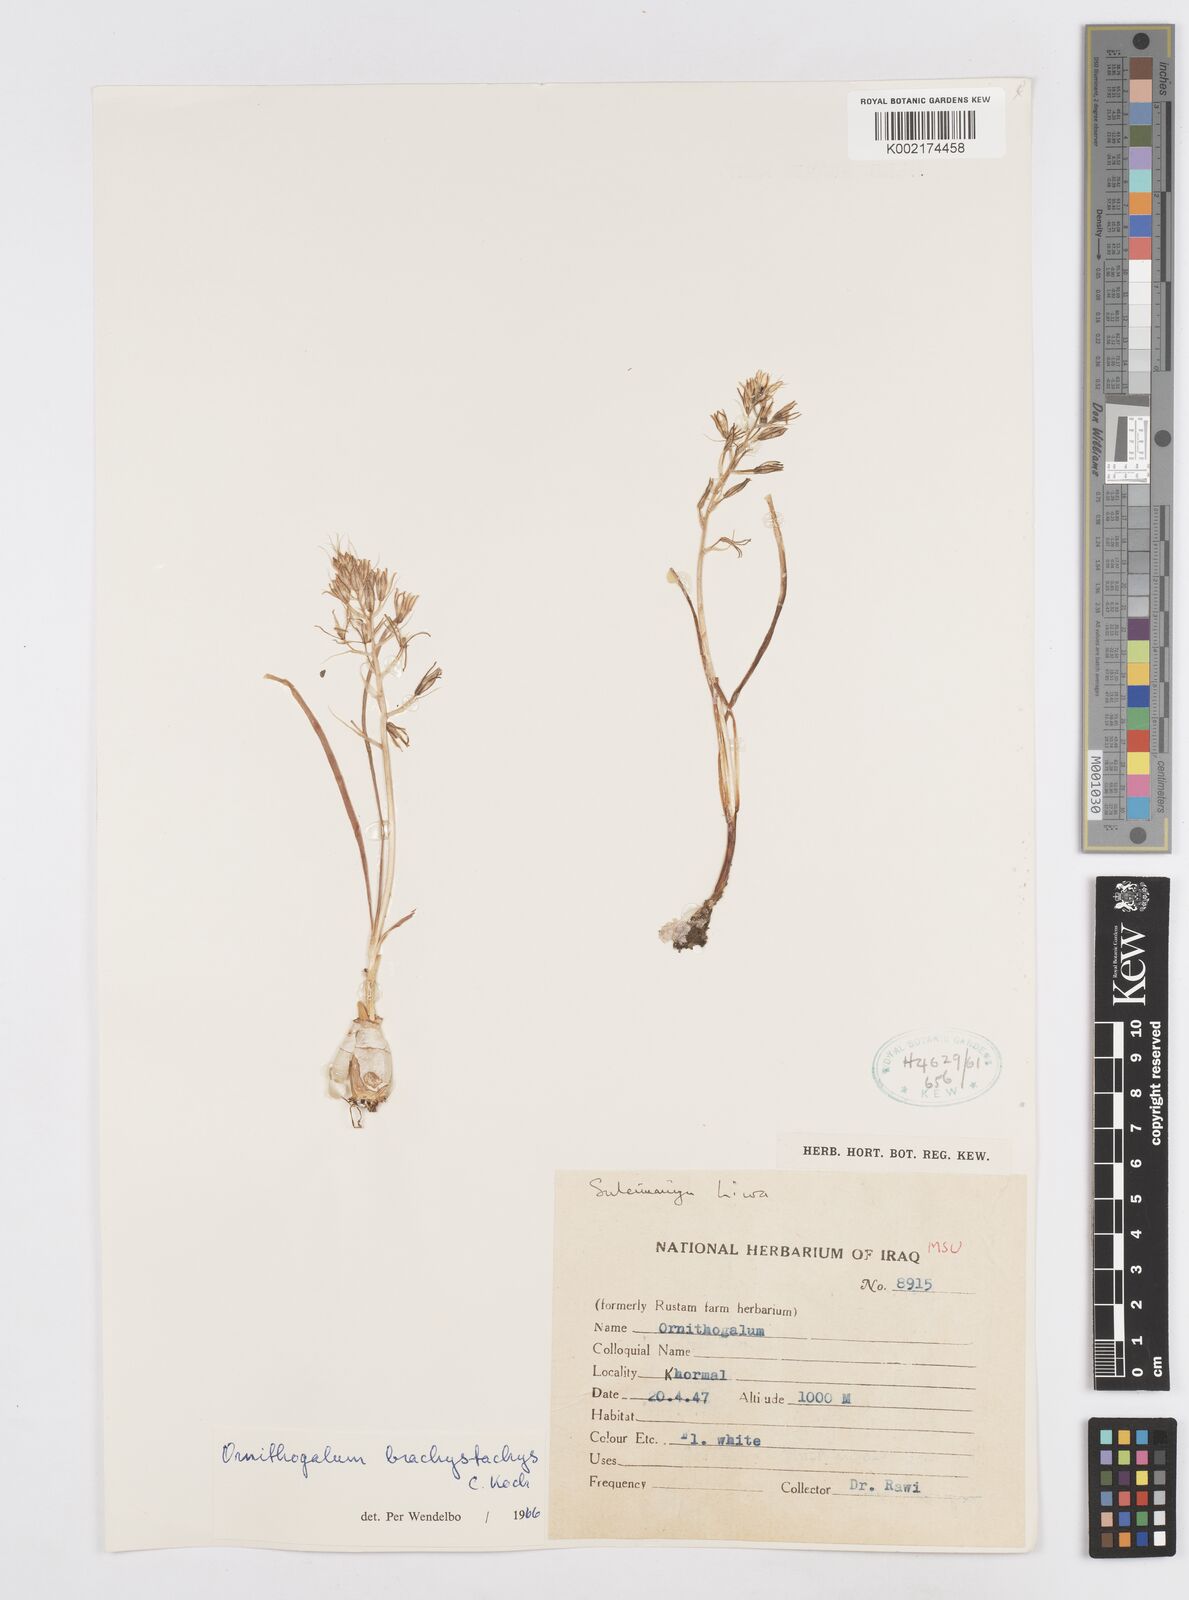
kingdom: Plantae
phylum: Tracheophyta
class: Liliopsida
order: Asparagales
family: Asparagaceae
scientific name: Asparagaceae
